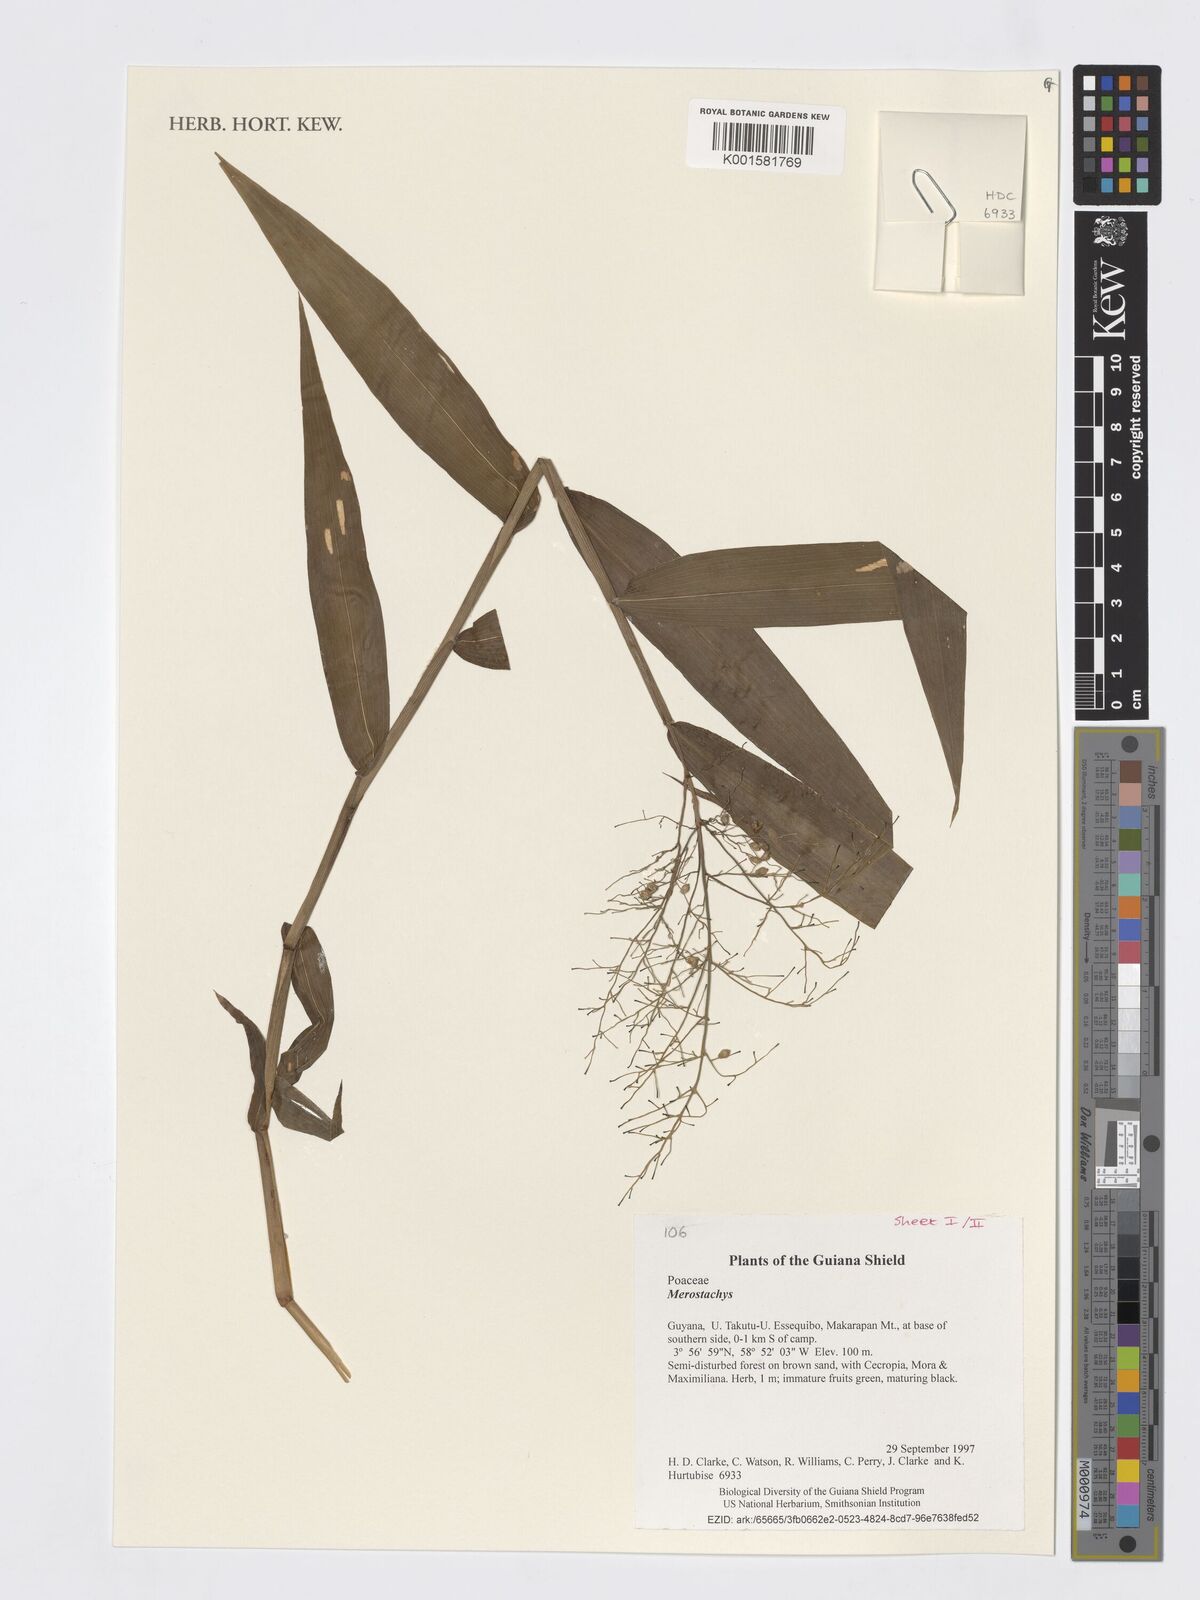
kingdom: Plantae
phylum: Tracheophyta
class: Liliopsida
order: Poales
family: Poaceae
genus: Merostachys
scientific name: Merostachys
